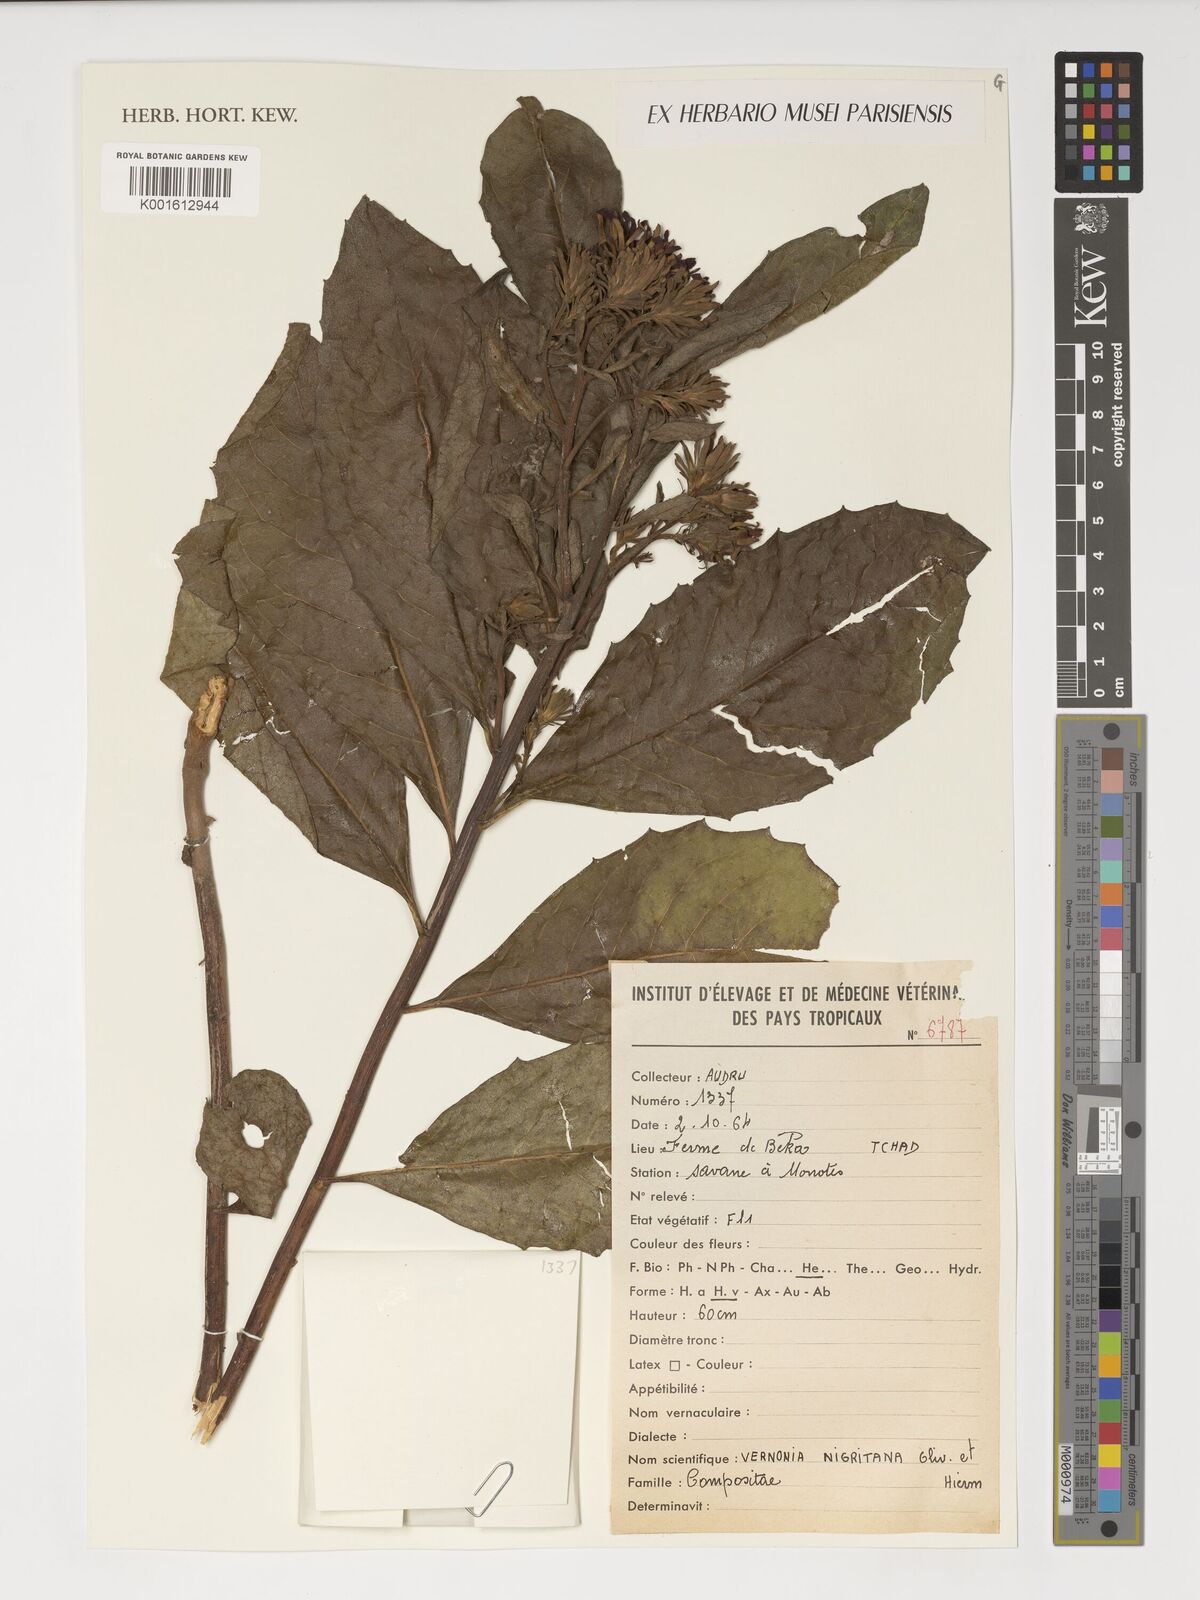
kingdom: Plantae
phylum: Tracheophyta
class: Magnoliopsida
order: Asterales
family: Asteraceae
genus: Linzia
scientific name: Linzia nigritiana
